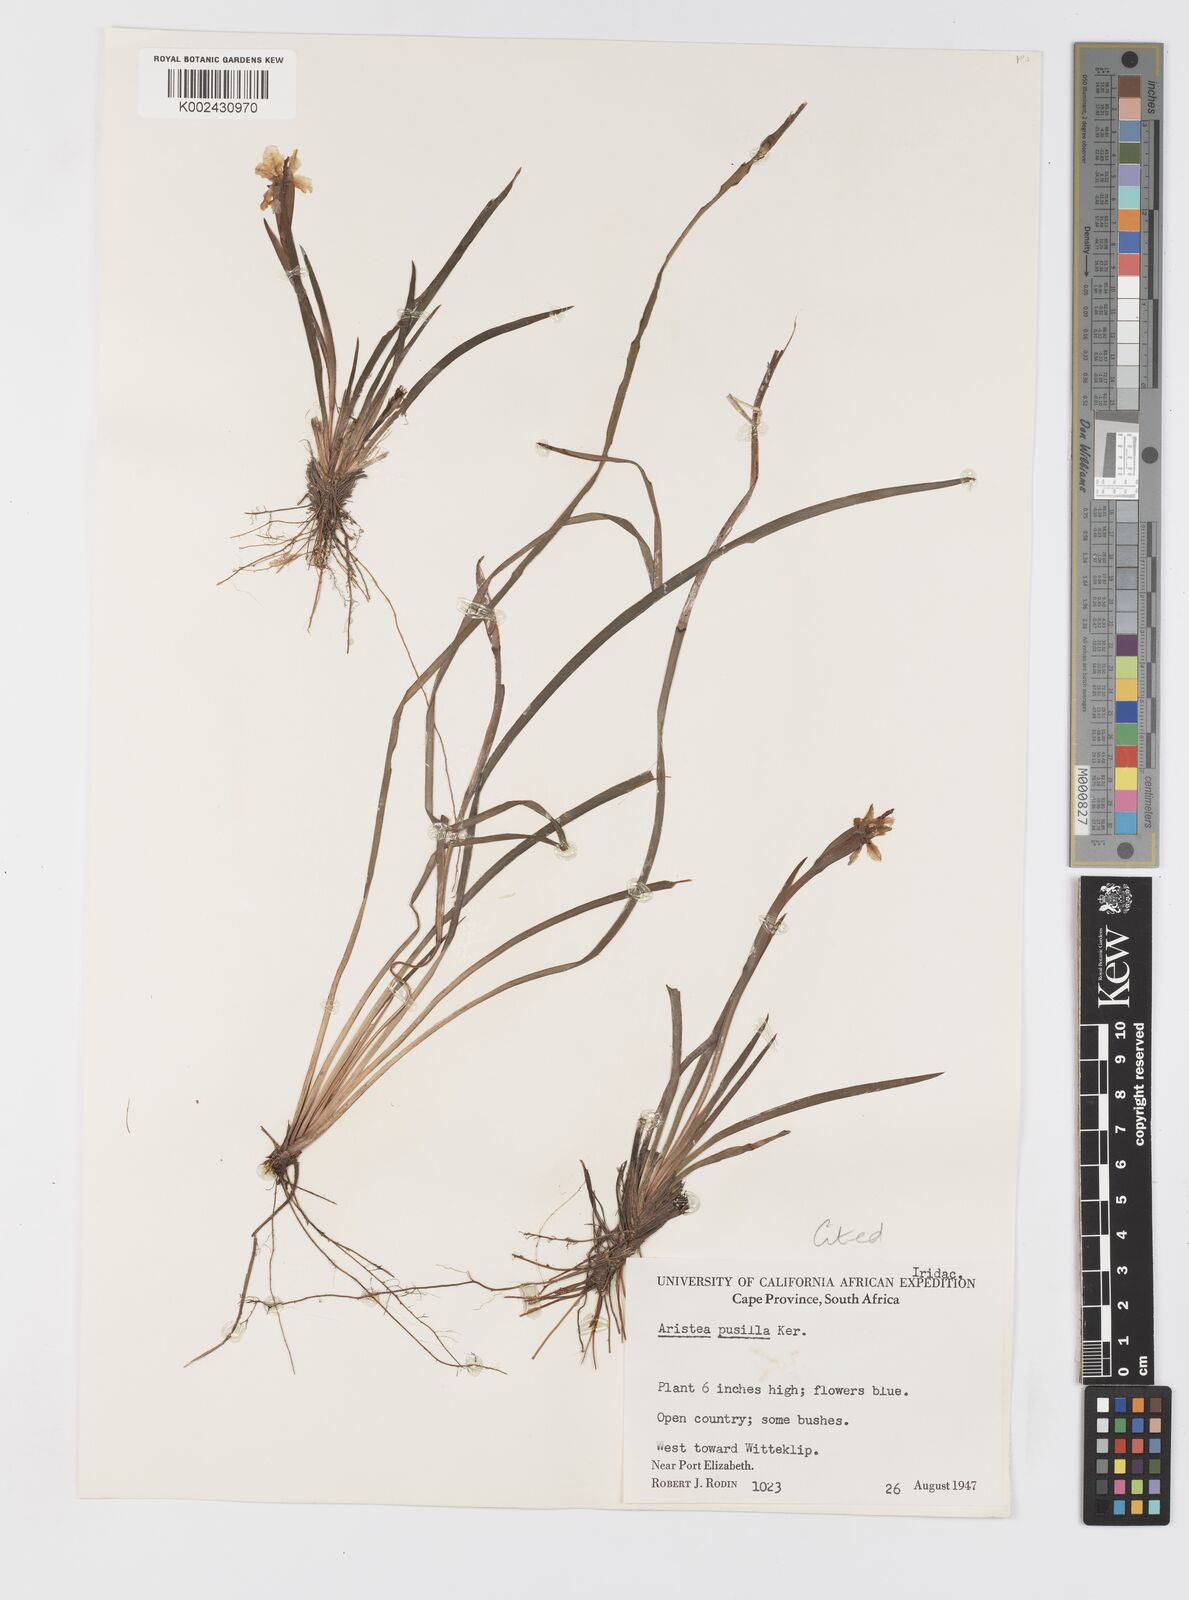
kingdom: Plantae
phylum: Tracheophyta
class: Liliopsida
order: Asparagales
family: Iridaceae
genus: Aristea
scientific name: Aristea pusilla
